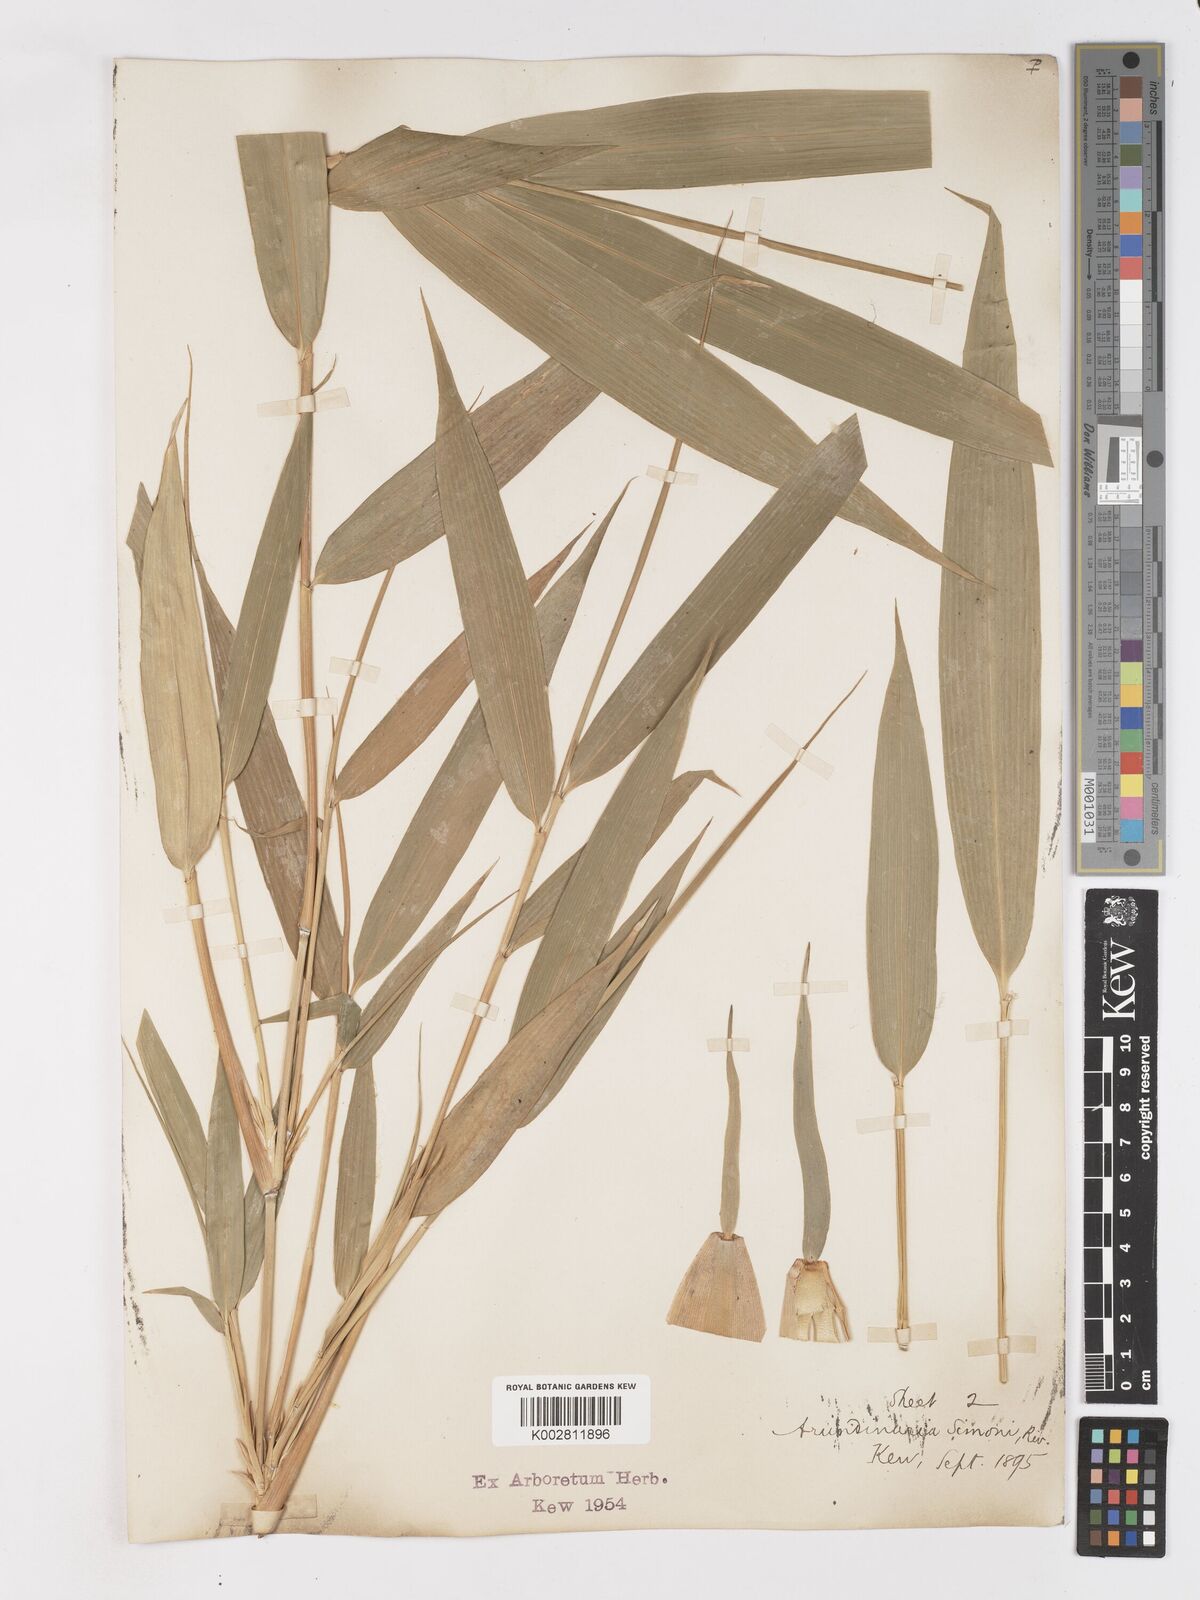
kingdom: Plantae
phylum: Tracheophyta
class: Liliopsida
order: Poales
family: Poaceae
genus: Pleioblastus
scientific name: Pleioblastus simonii
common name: Simon bamboo
